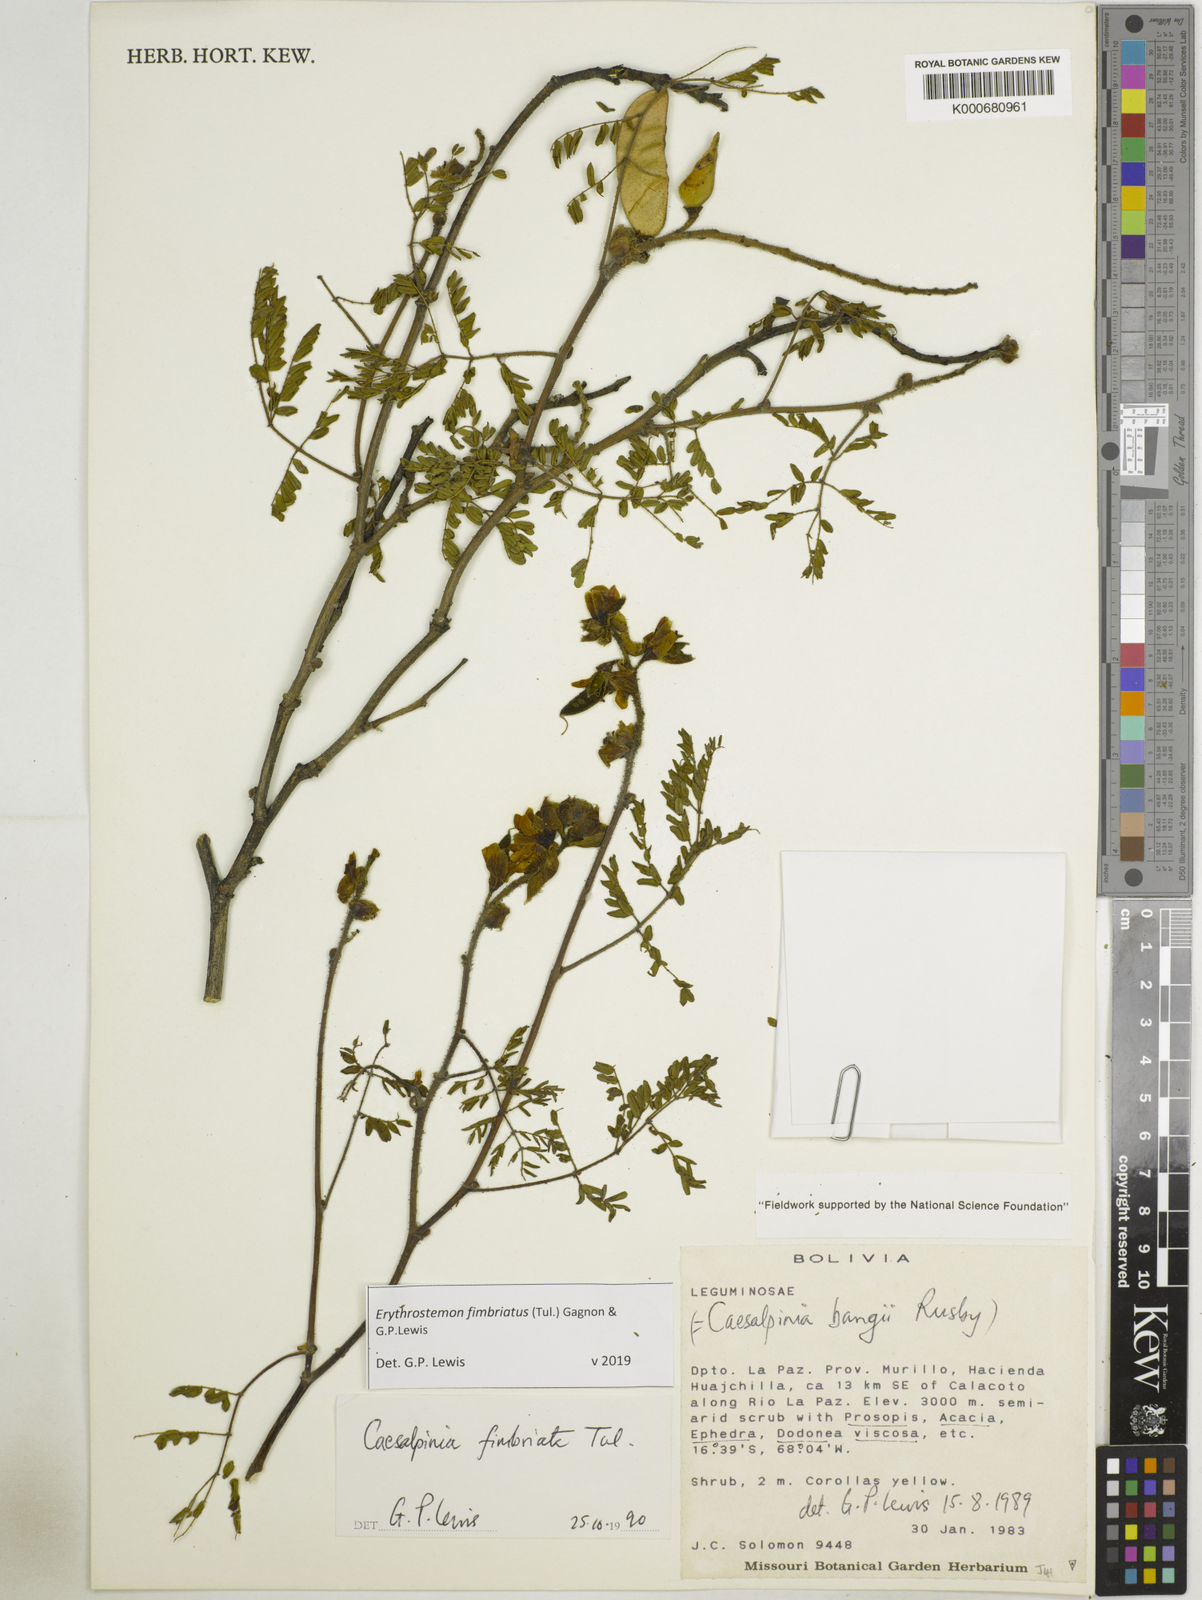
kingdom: Plantae
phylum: Tracheophyta
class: Magnoliopsida
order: Fabales
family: Fabaceae
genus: Erythrostemon
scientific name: Erythrostemon fimbriatus
